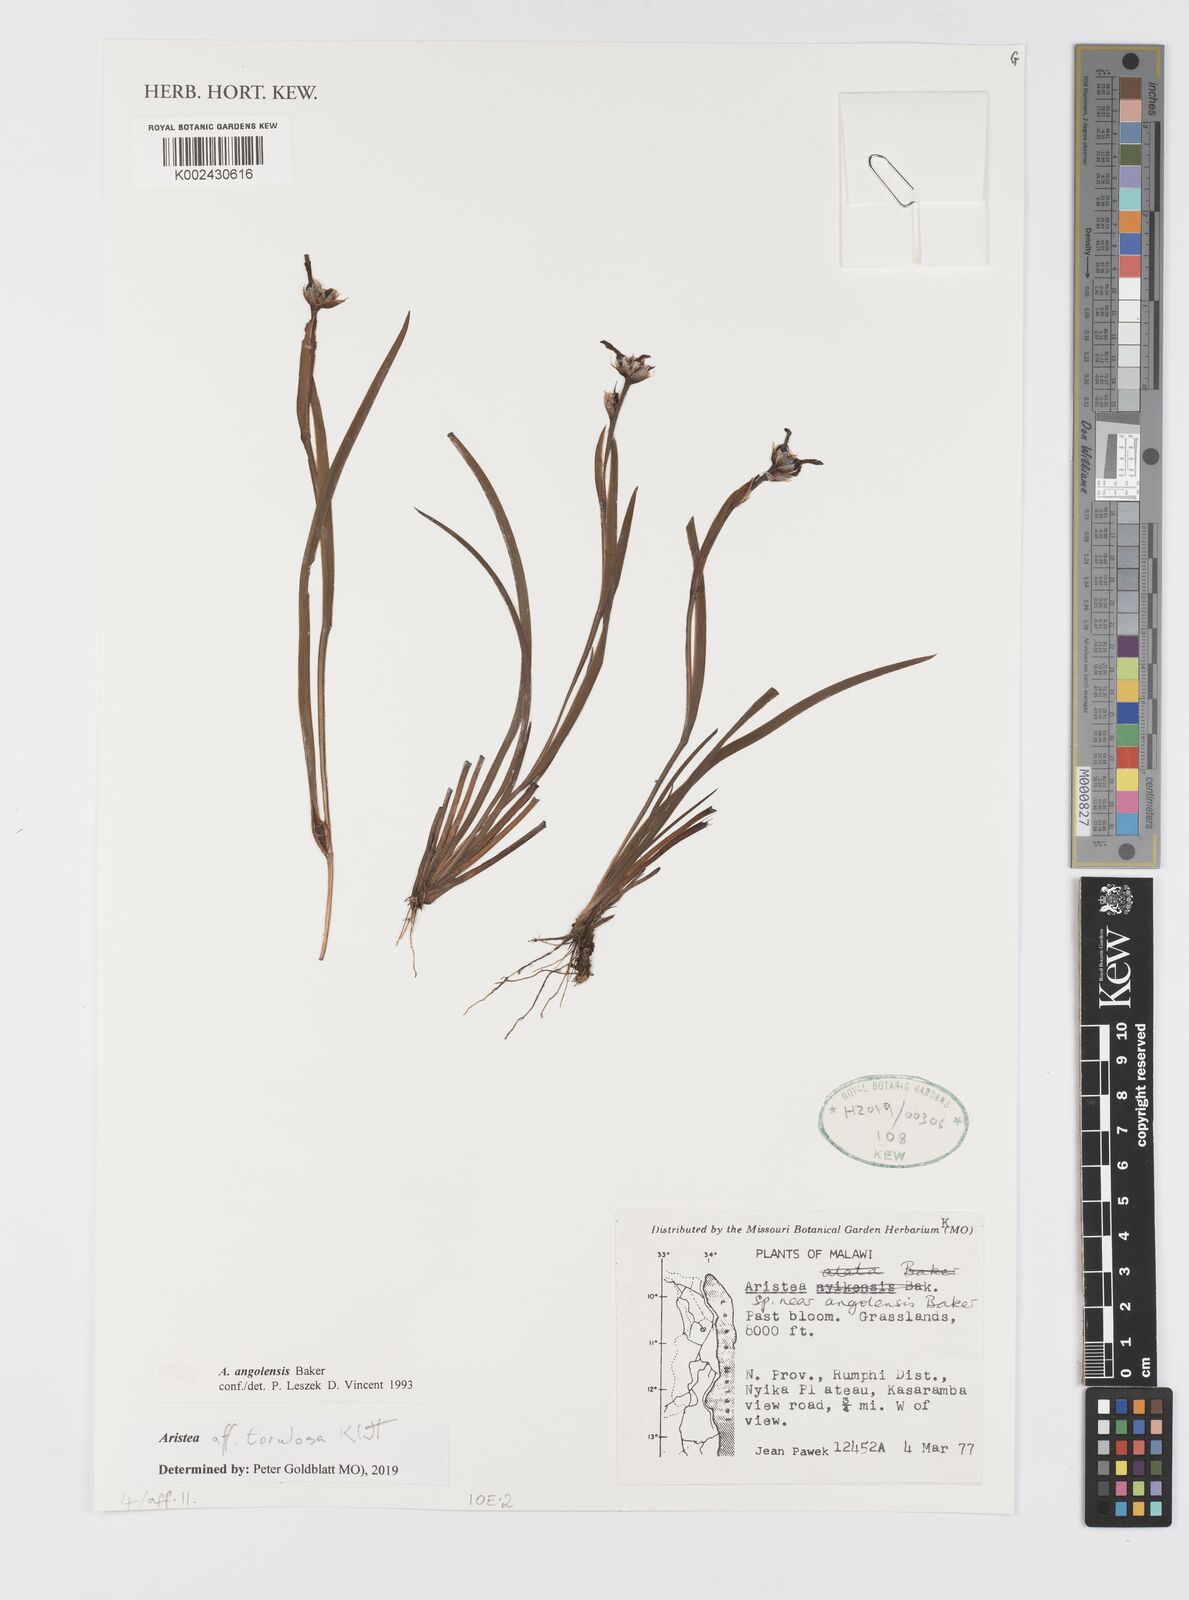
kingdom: Plantae
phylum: Tracheophyta
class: Liliopsida
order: Asparagales
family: Iridaceae
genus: Aristea
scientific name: Aristea torulosa
